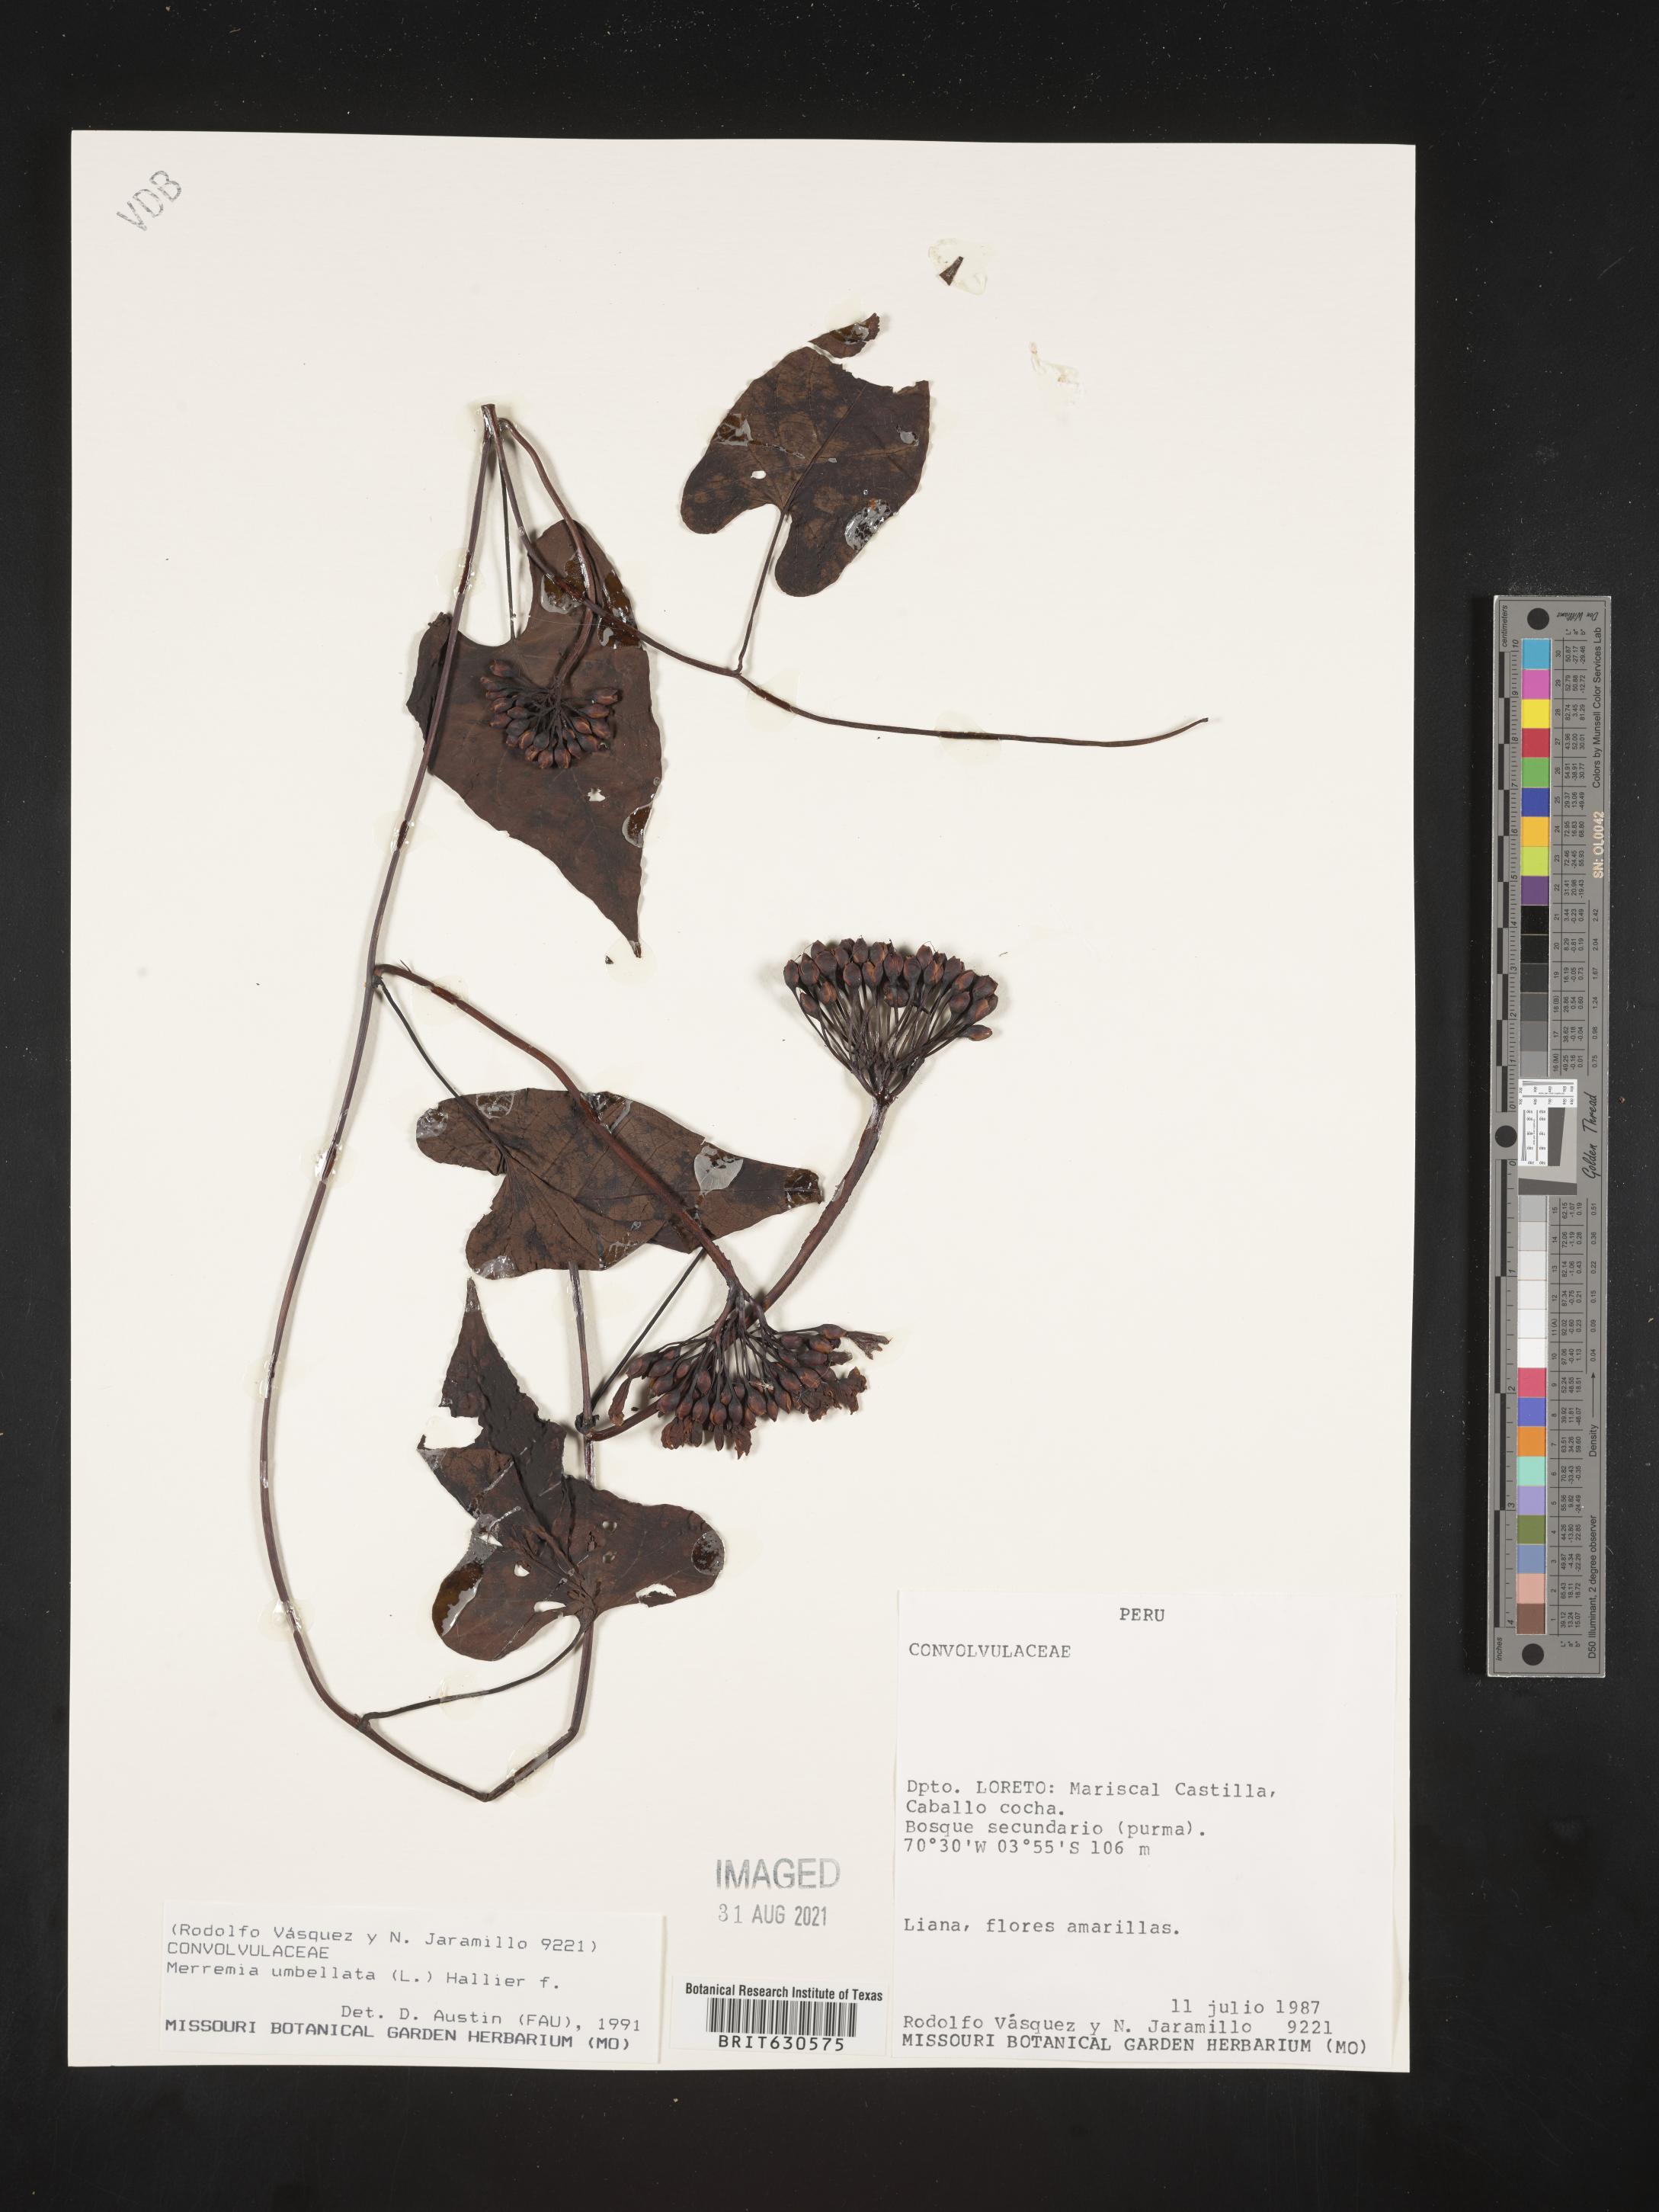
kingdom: Plantae
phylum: Tracheophyta
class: Magnoliopsida
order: Solanales
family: Convolvulaceae
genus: Camonea
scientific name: Camonea umbellata
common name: Hogvine
